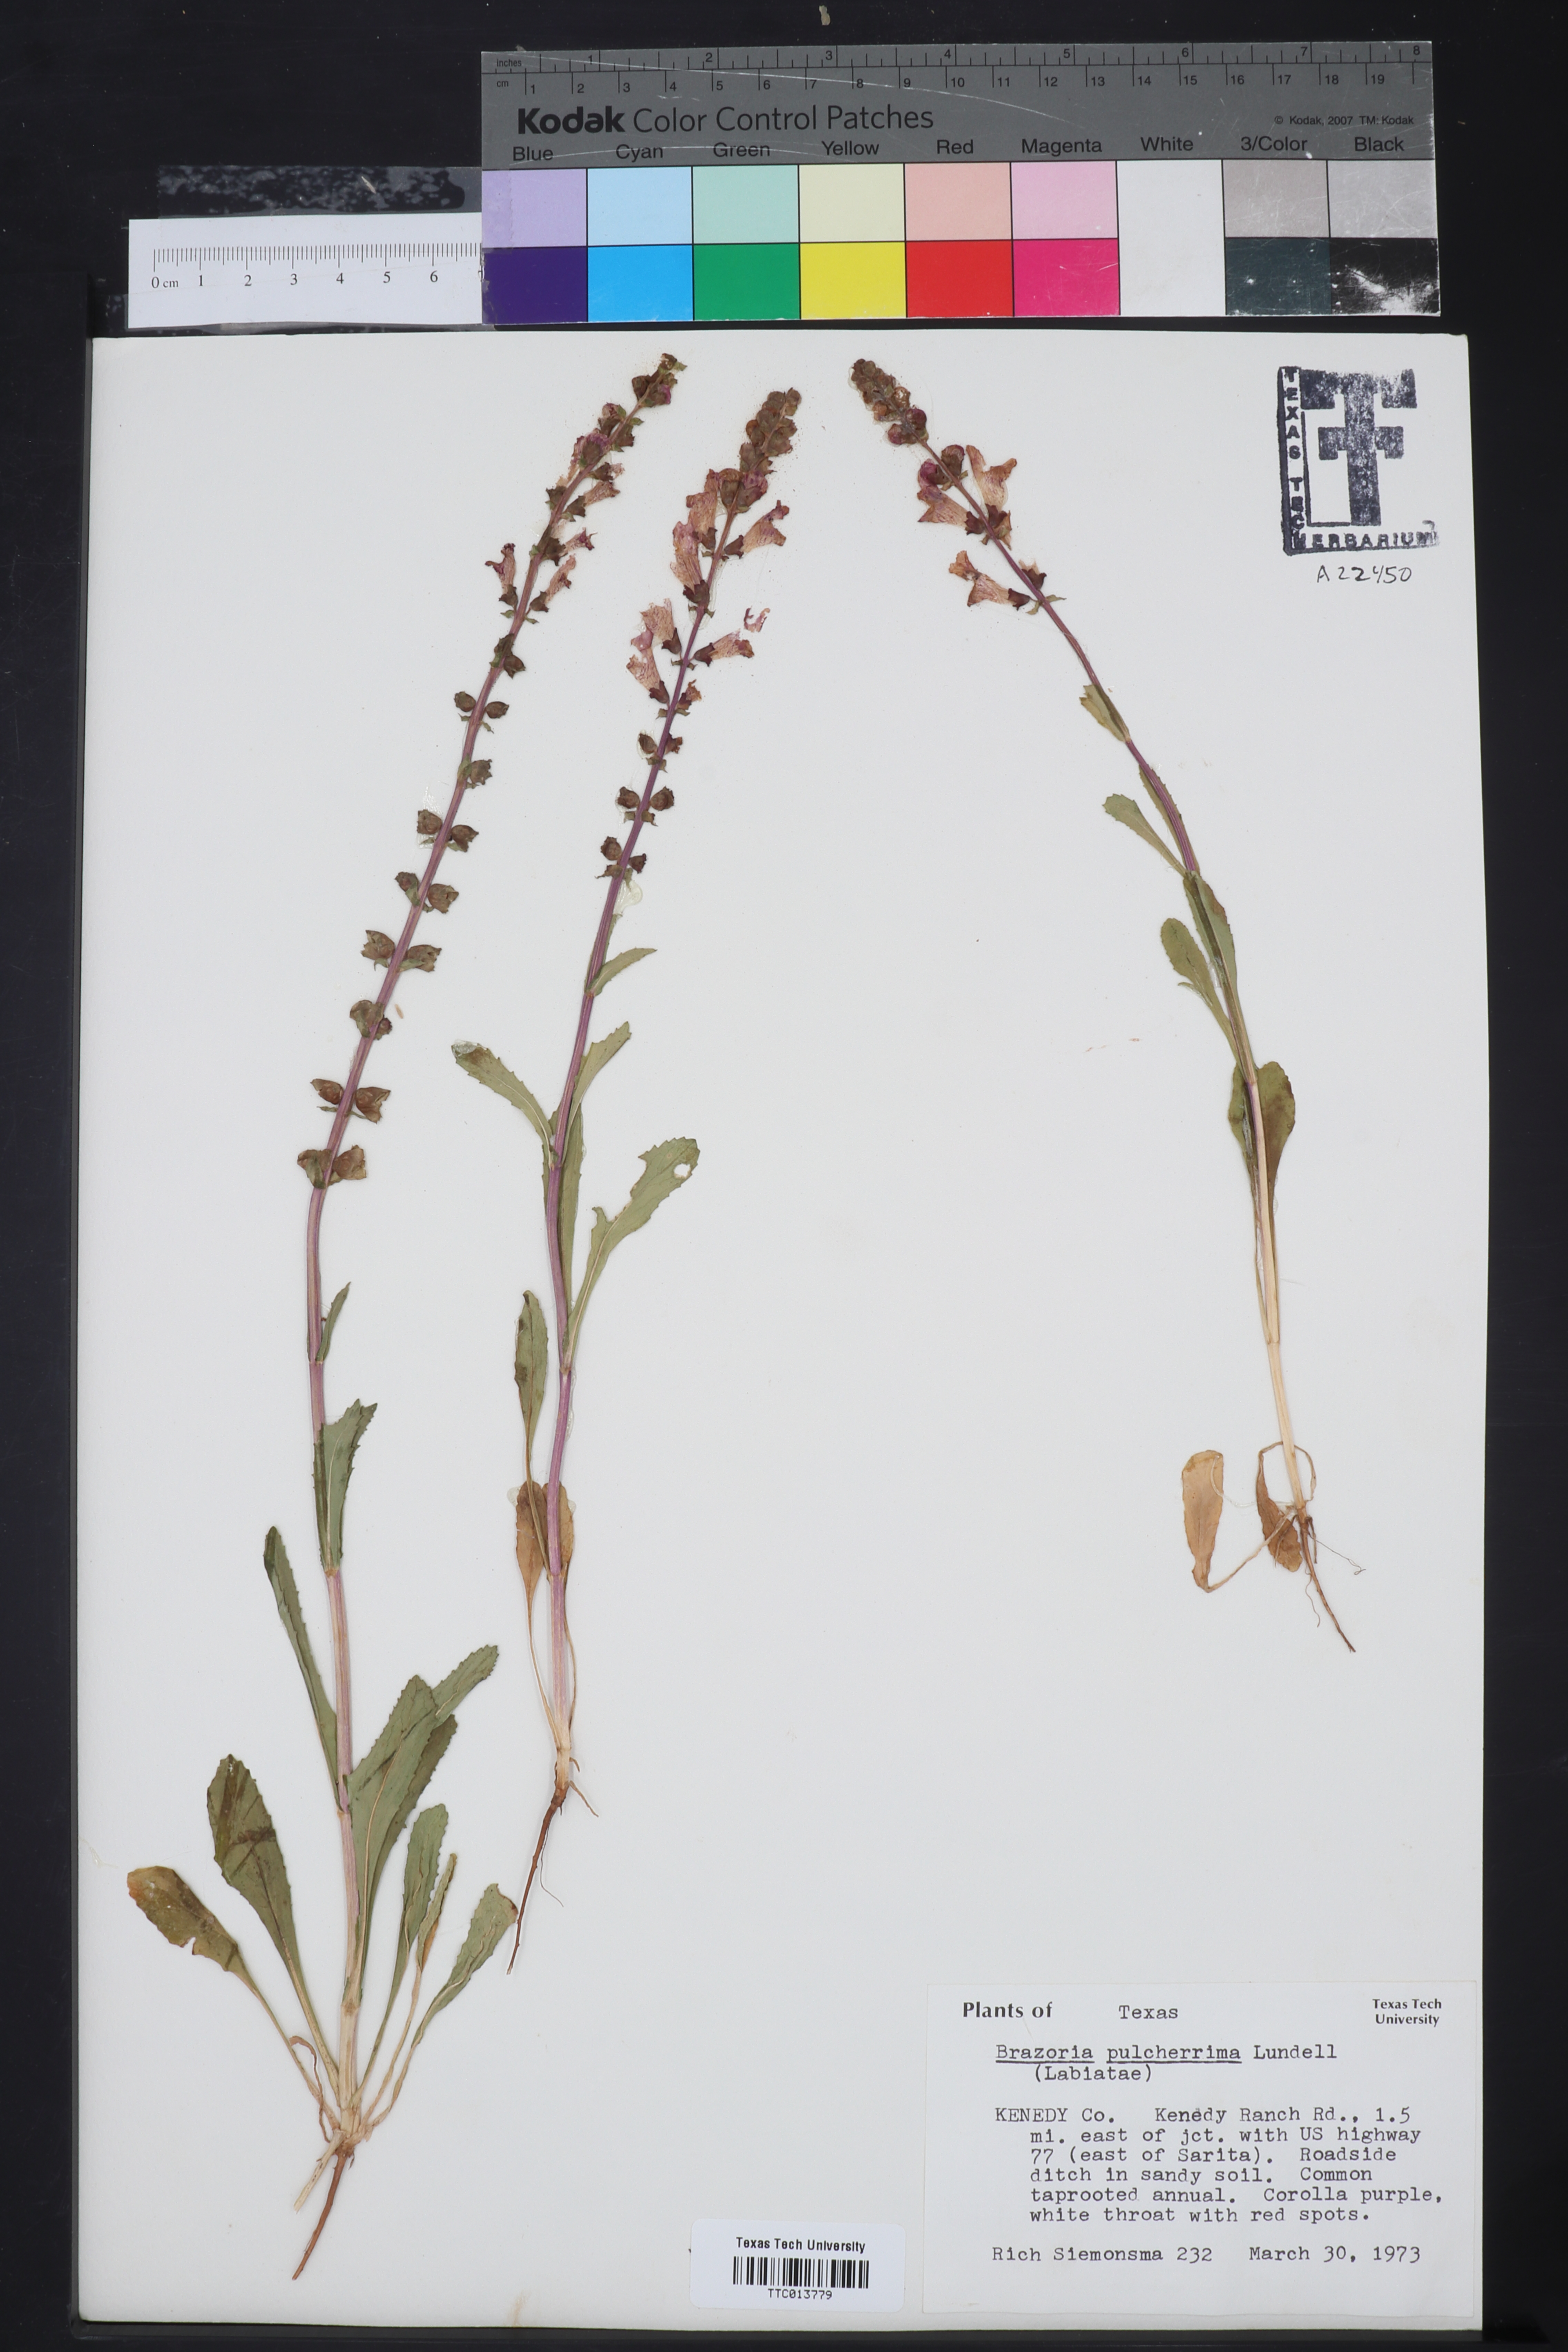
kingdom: Plantae
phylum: Tracheophyta
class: Magnoliopsida
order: Lamiales
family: Lamiaceae
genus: Brazoria
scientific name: Brazoria truncata
